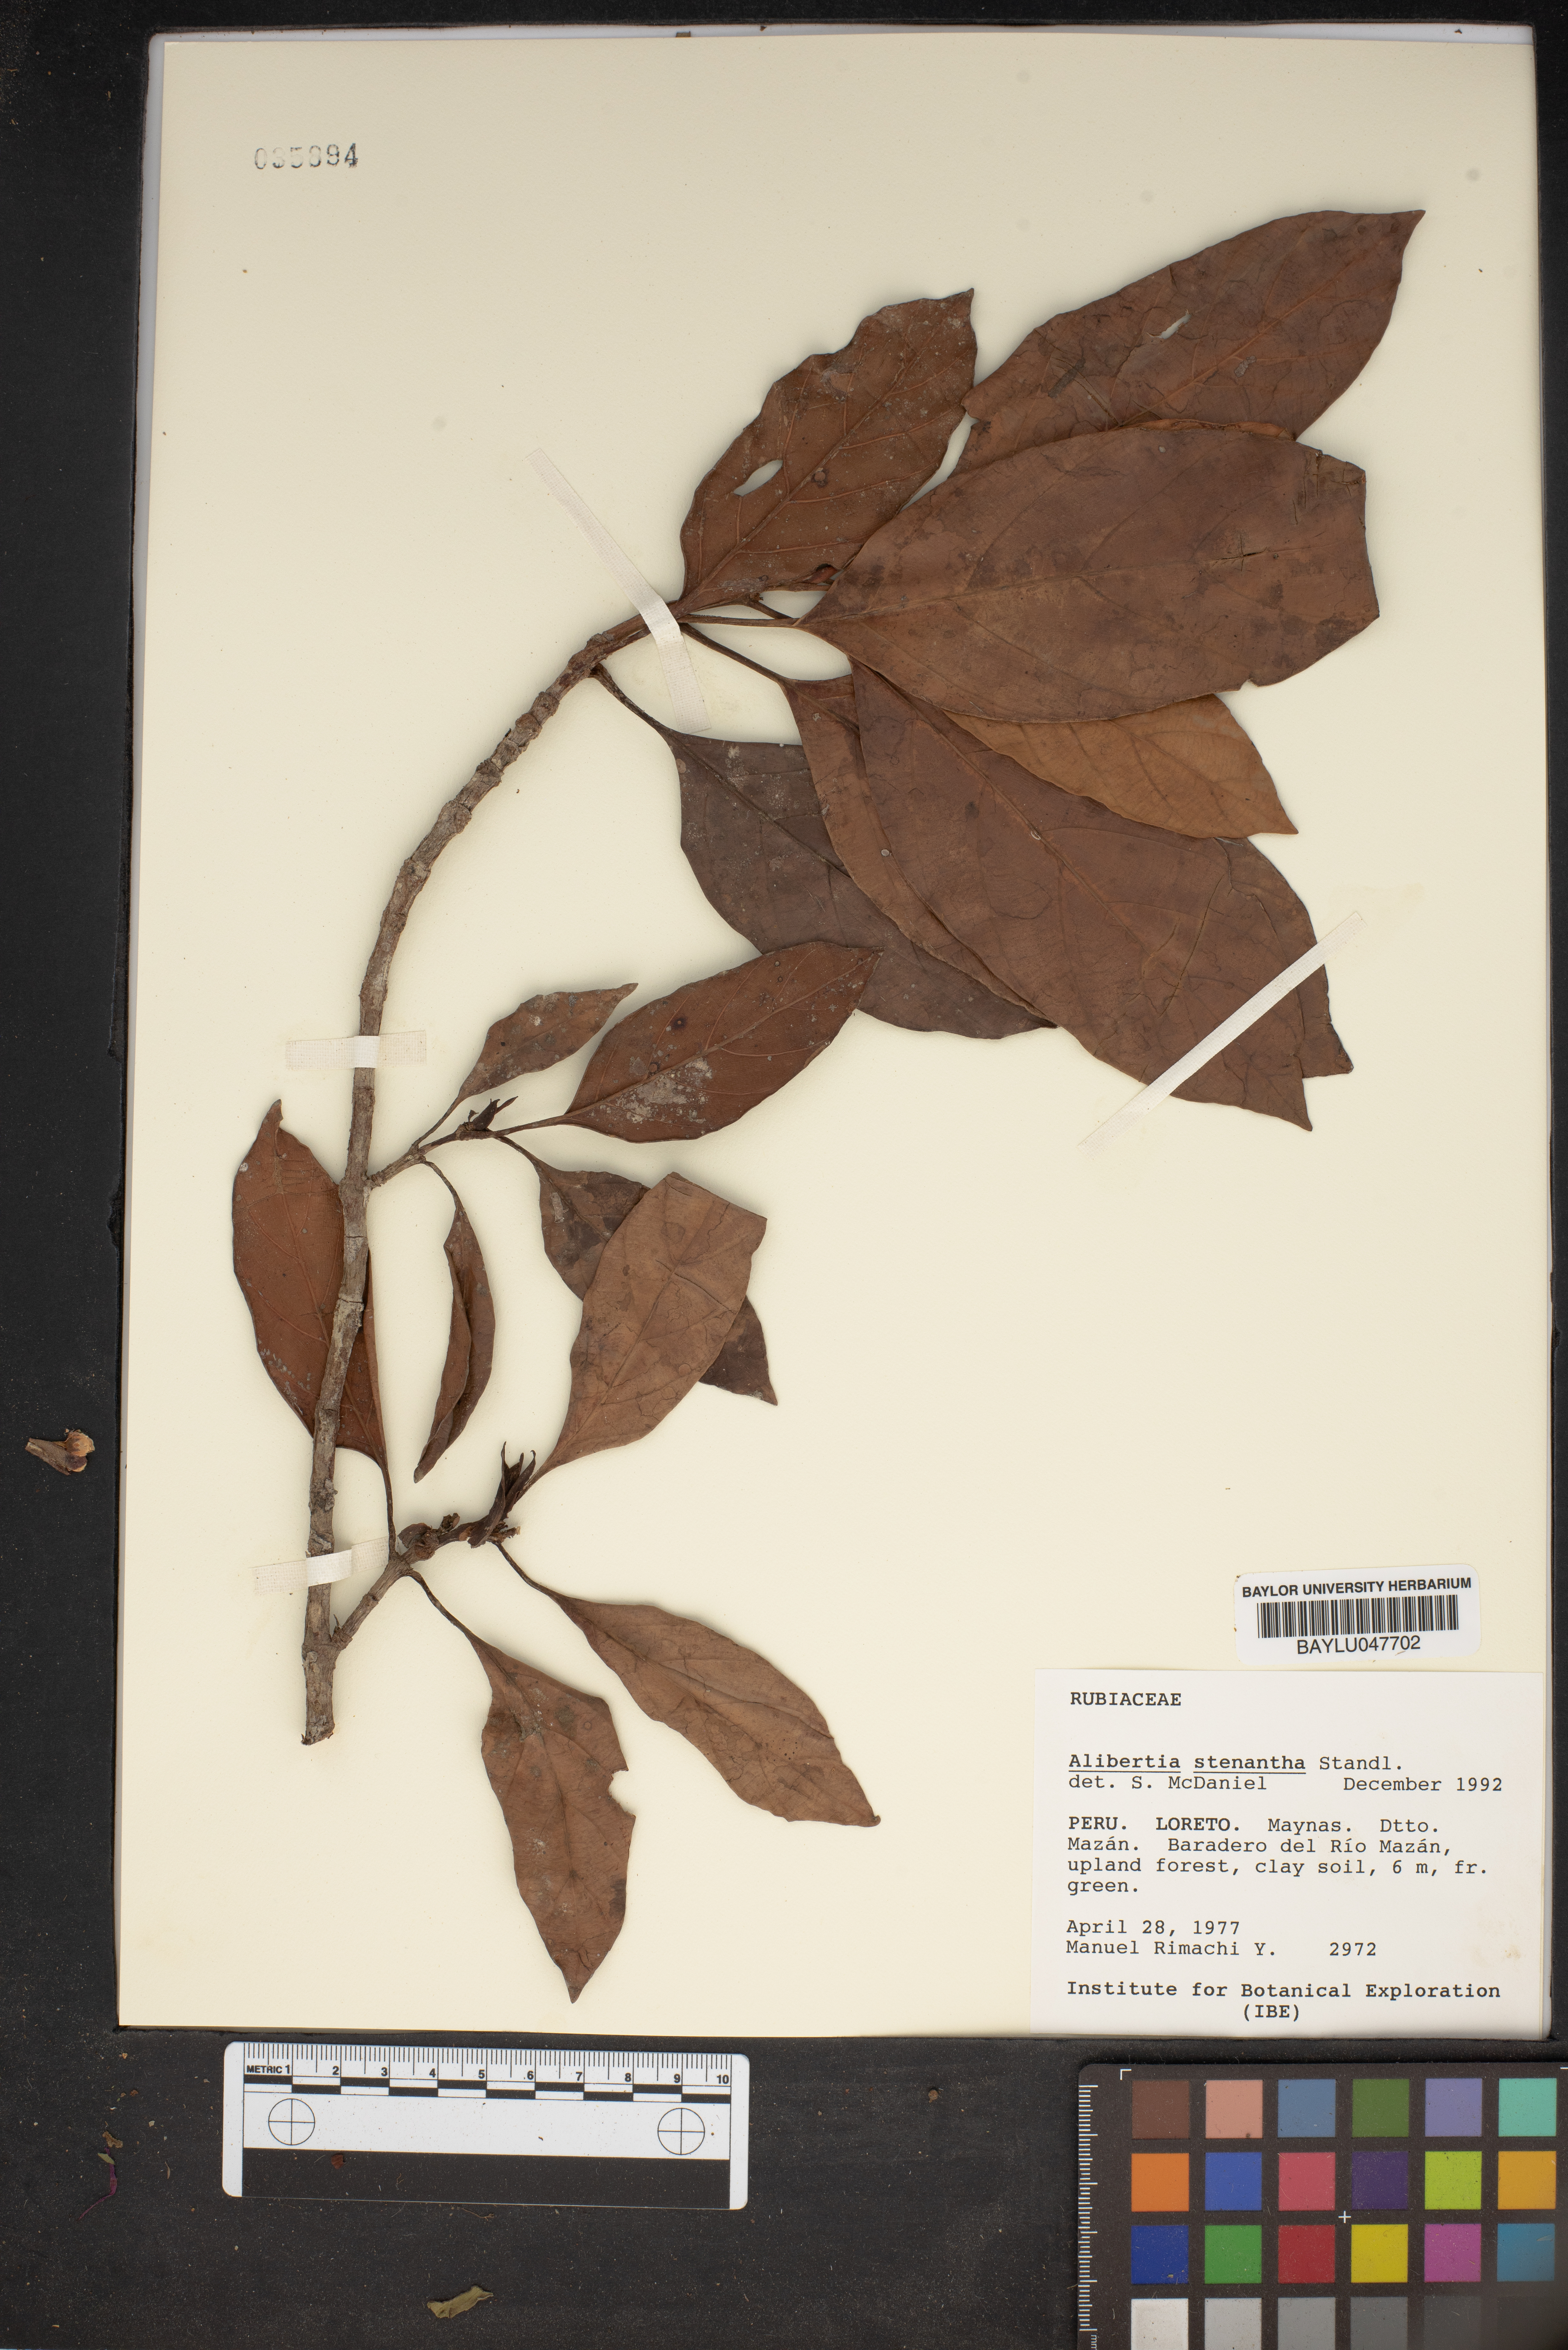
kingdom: Plantae
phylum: Tracheophyta
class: Magnoliopsida
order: Gentianales
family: Rubiaceae
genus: Alibertia
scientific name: Alibertia bertierifolia
